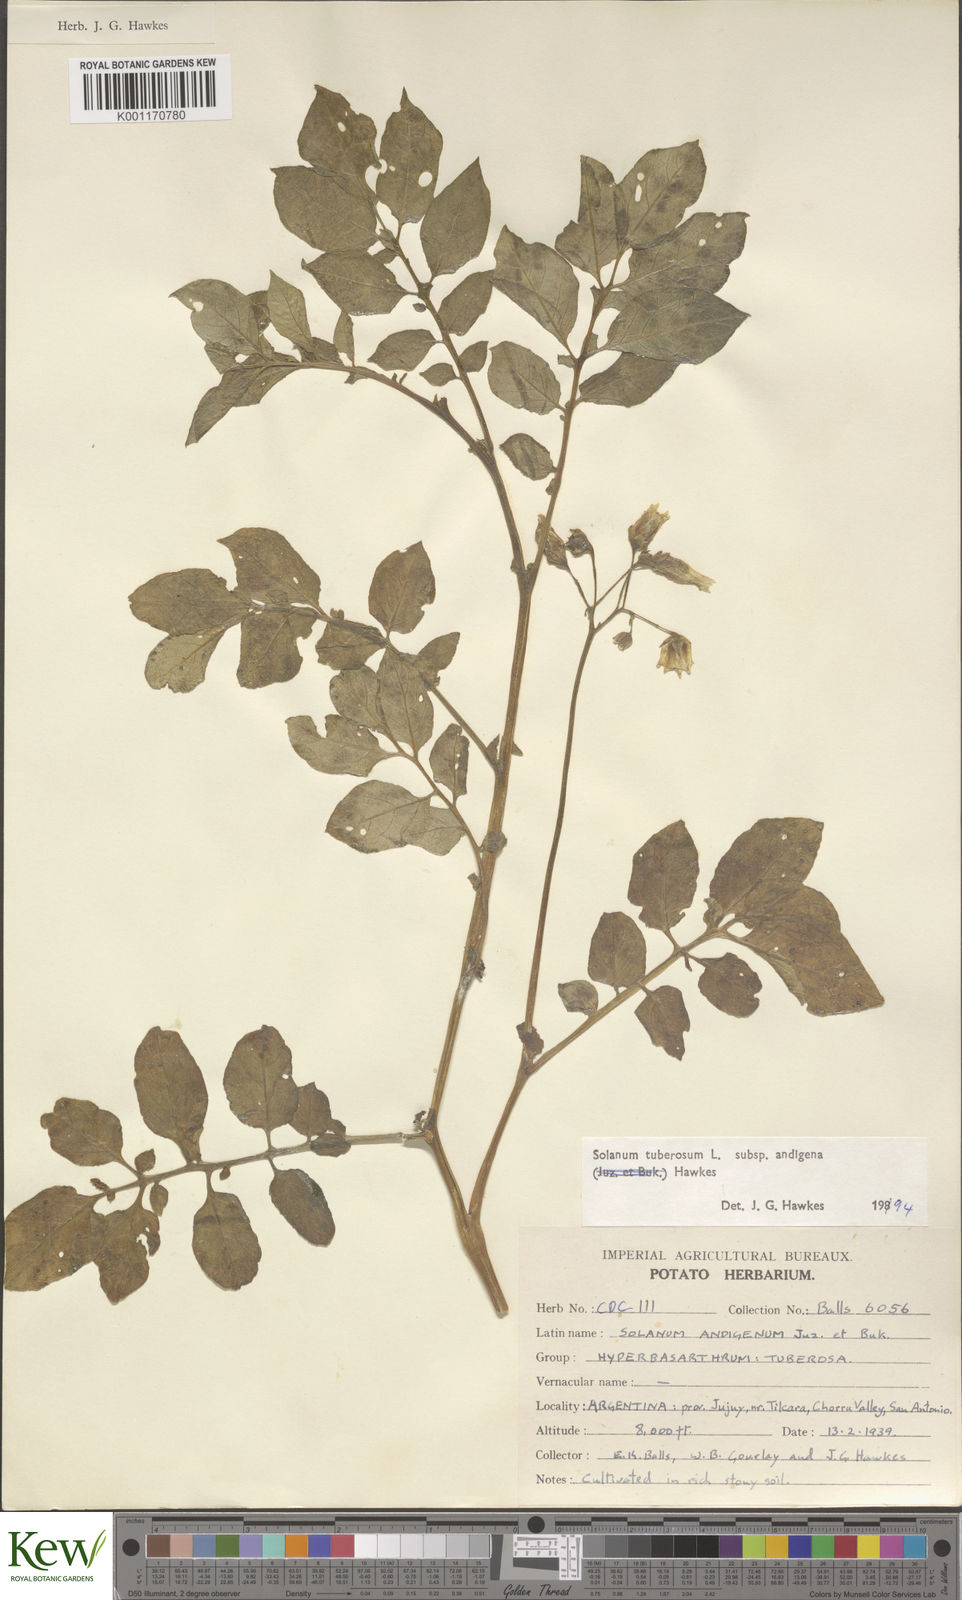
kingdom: Plantae
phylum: Tracheophyta
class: Magnoliopsida
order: Solanales
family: Solanaceae
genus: Solanum
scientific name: Solanum tuberosum
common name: Potato
